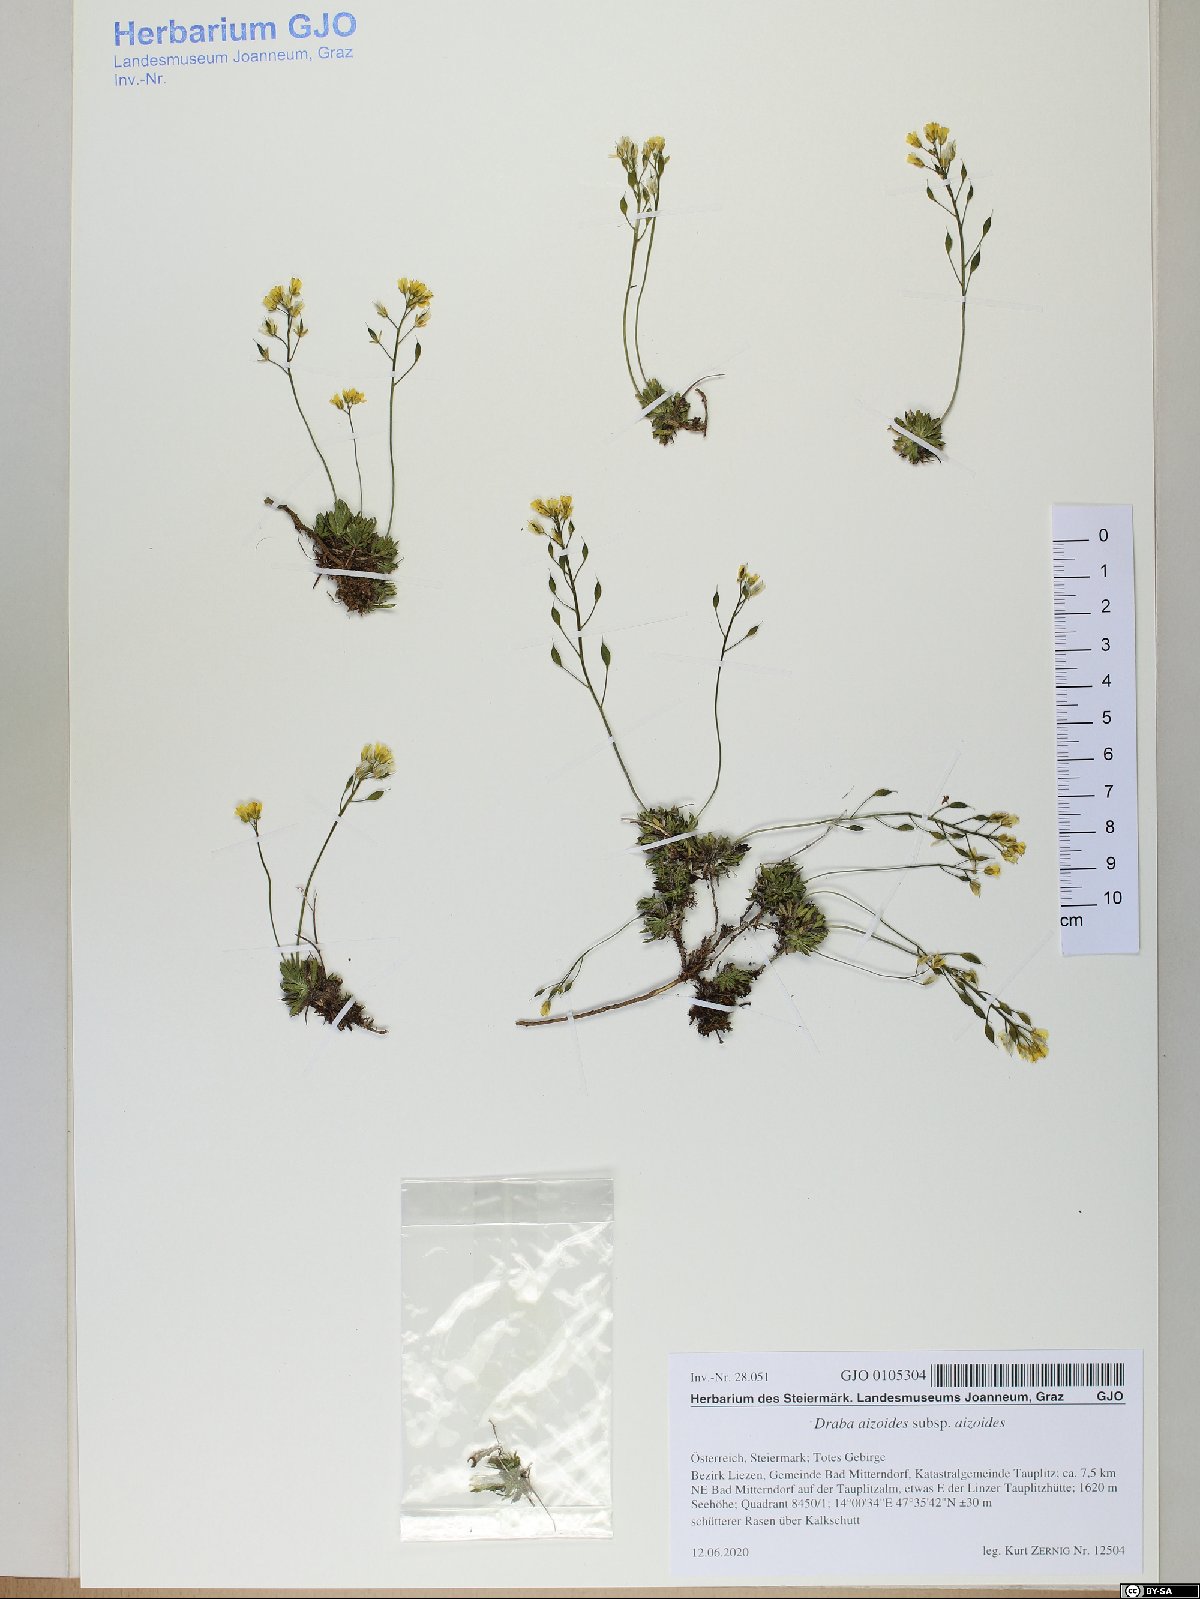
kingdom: Plantae
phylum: Tracheophyta
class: Magnoliopsida
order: Brassicales
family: Brassicaceae
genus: Draba
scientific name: Draba aizoides
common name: Yellow whitlowgrass
